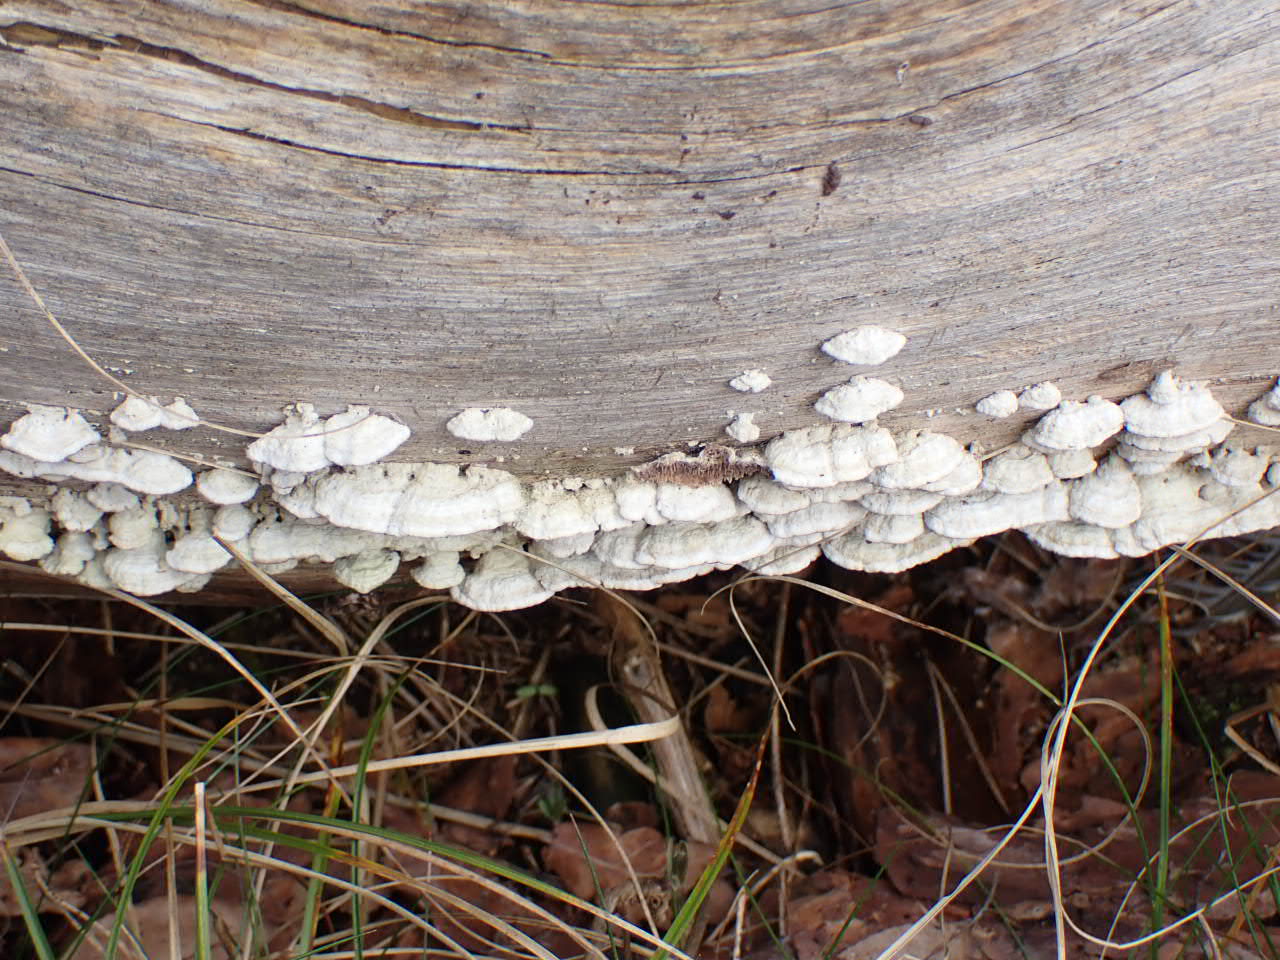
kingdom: Fungi
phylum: Basidiomycota
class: Agaricomycetes
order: Hymenochaetales
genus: Trichaptum
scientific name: Trichaptum fuscoviolaceum
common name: tandet violporesvamp
